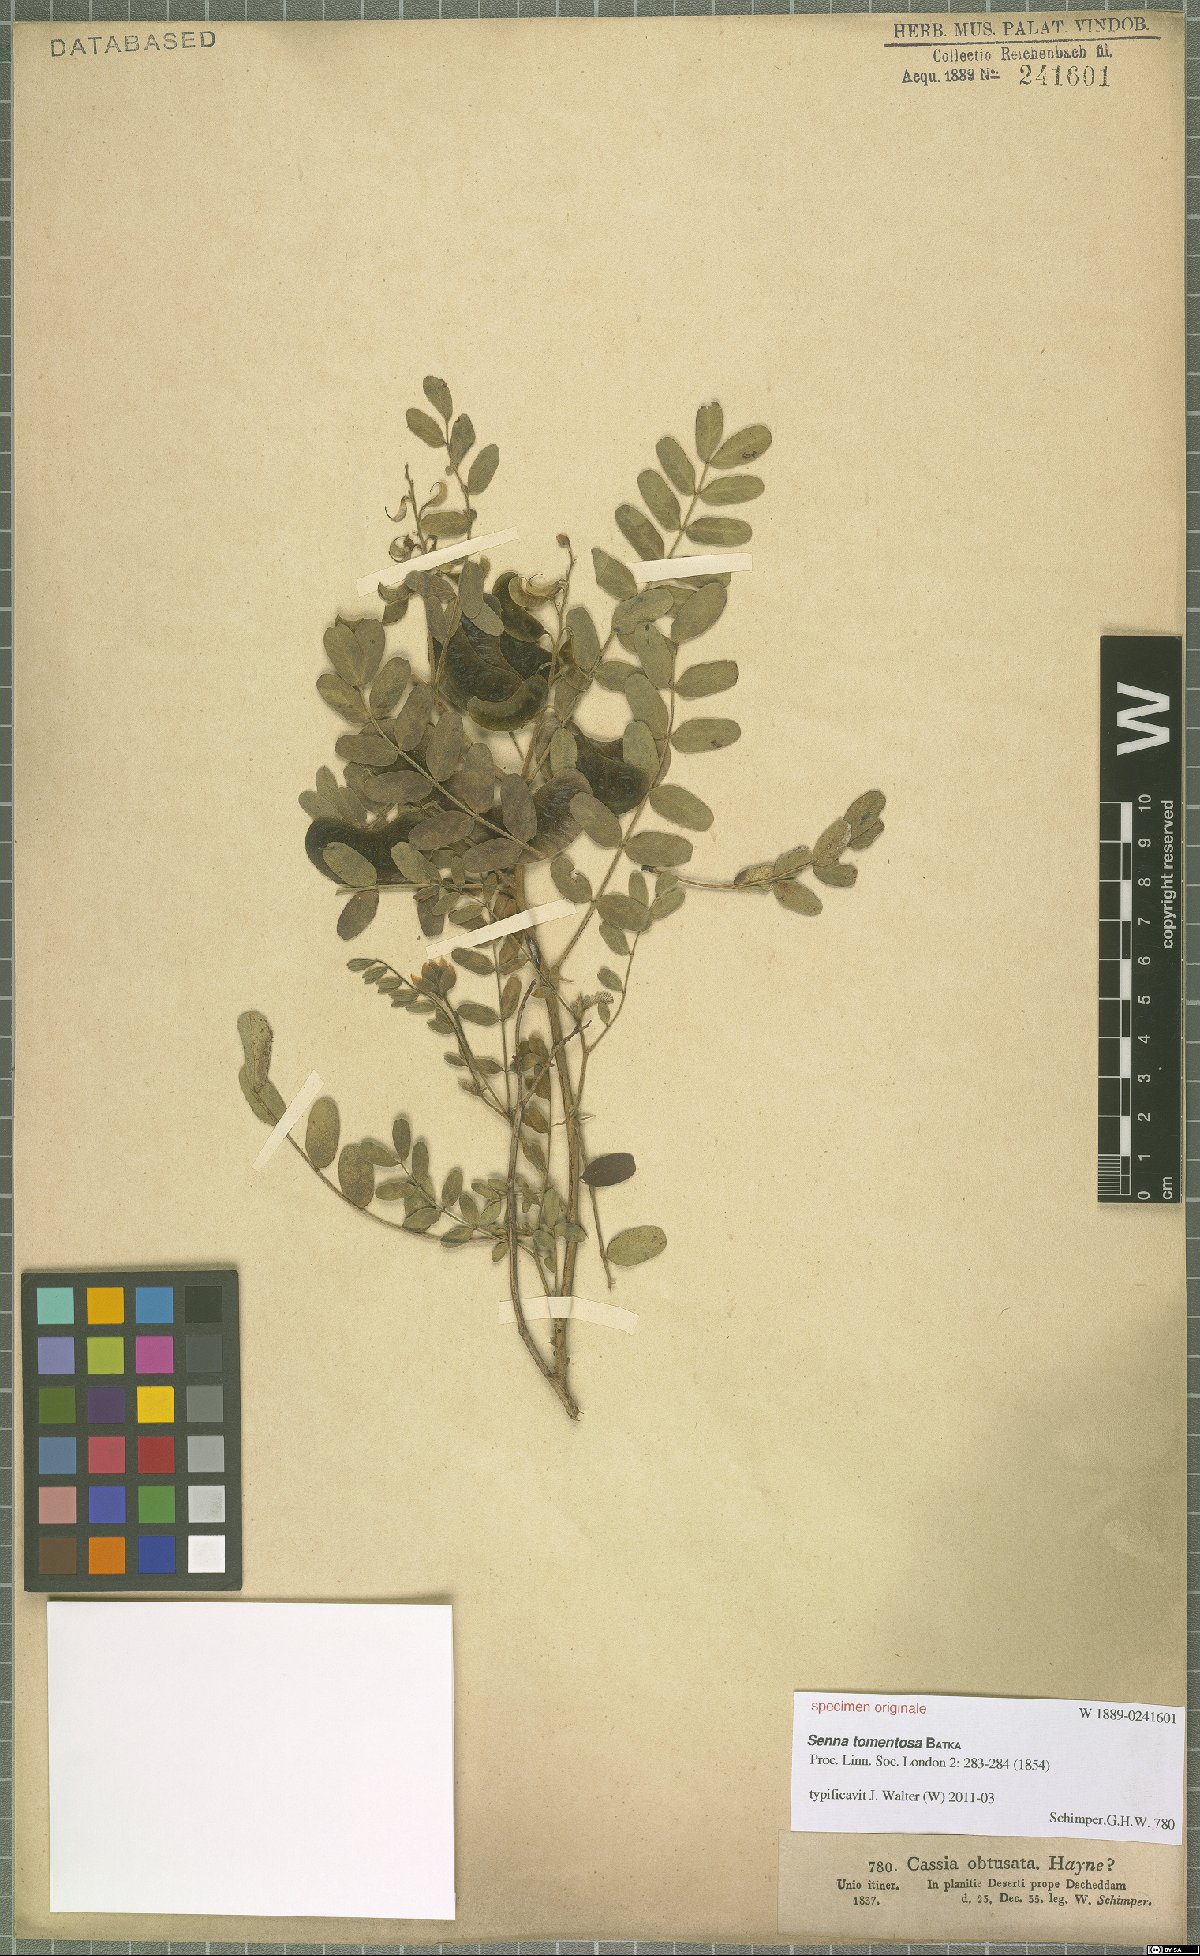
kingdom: Plantae
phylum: Tracheophyta
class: Magnoliopsida
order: Fabales
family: Fabaceae
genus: Senna
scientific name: Senna holosericea
